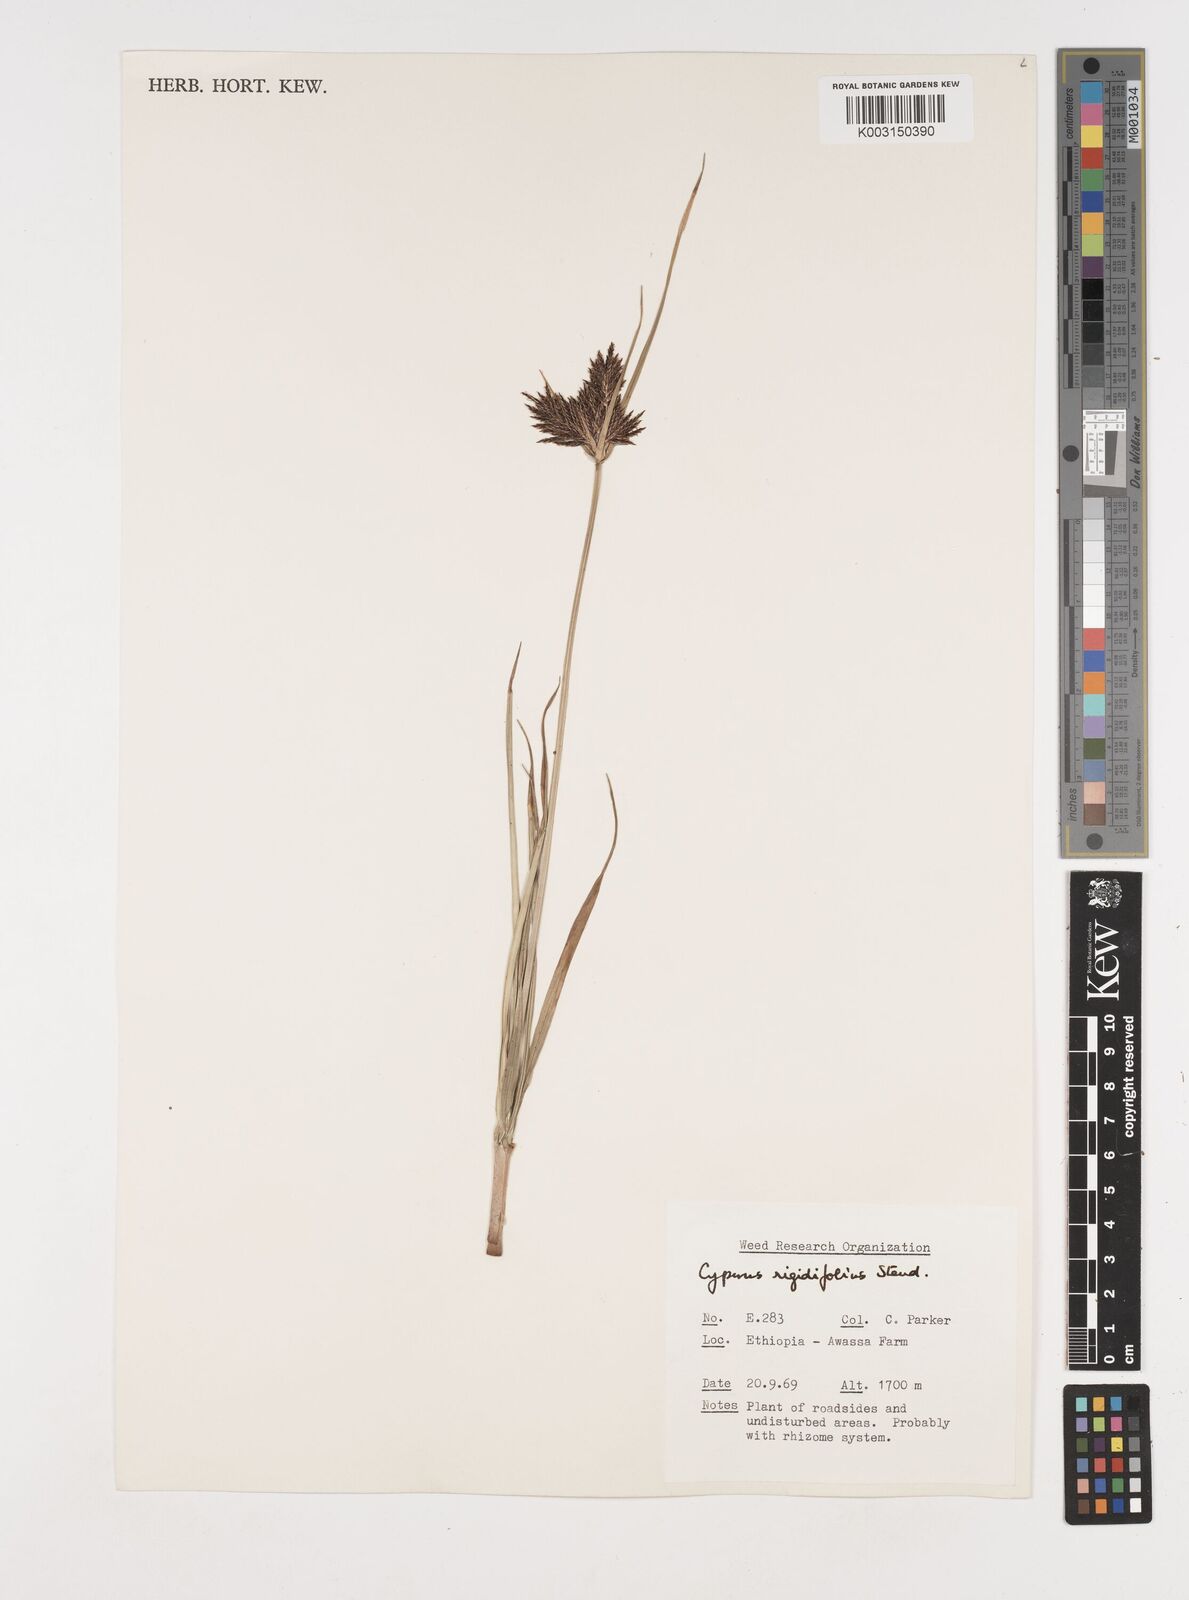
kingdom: Plantae
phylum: Tracheophyta
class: Liliopsida
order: Poales
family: Cyperaceae
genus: Cyperus
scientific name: Cyperus rigidifolius
